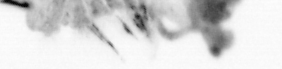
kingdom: Animalia
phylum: Annelida
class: Polychaeta
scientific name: Polychaeta
